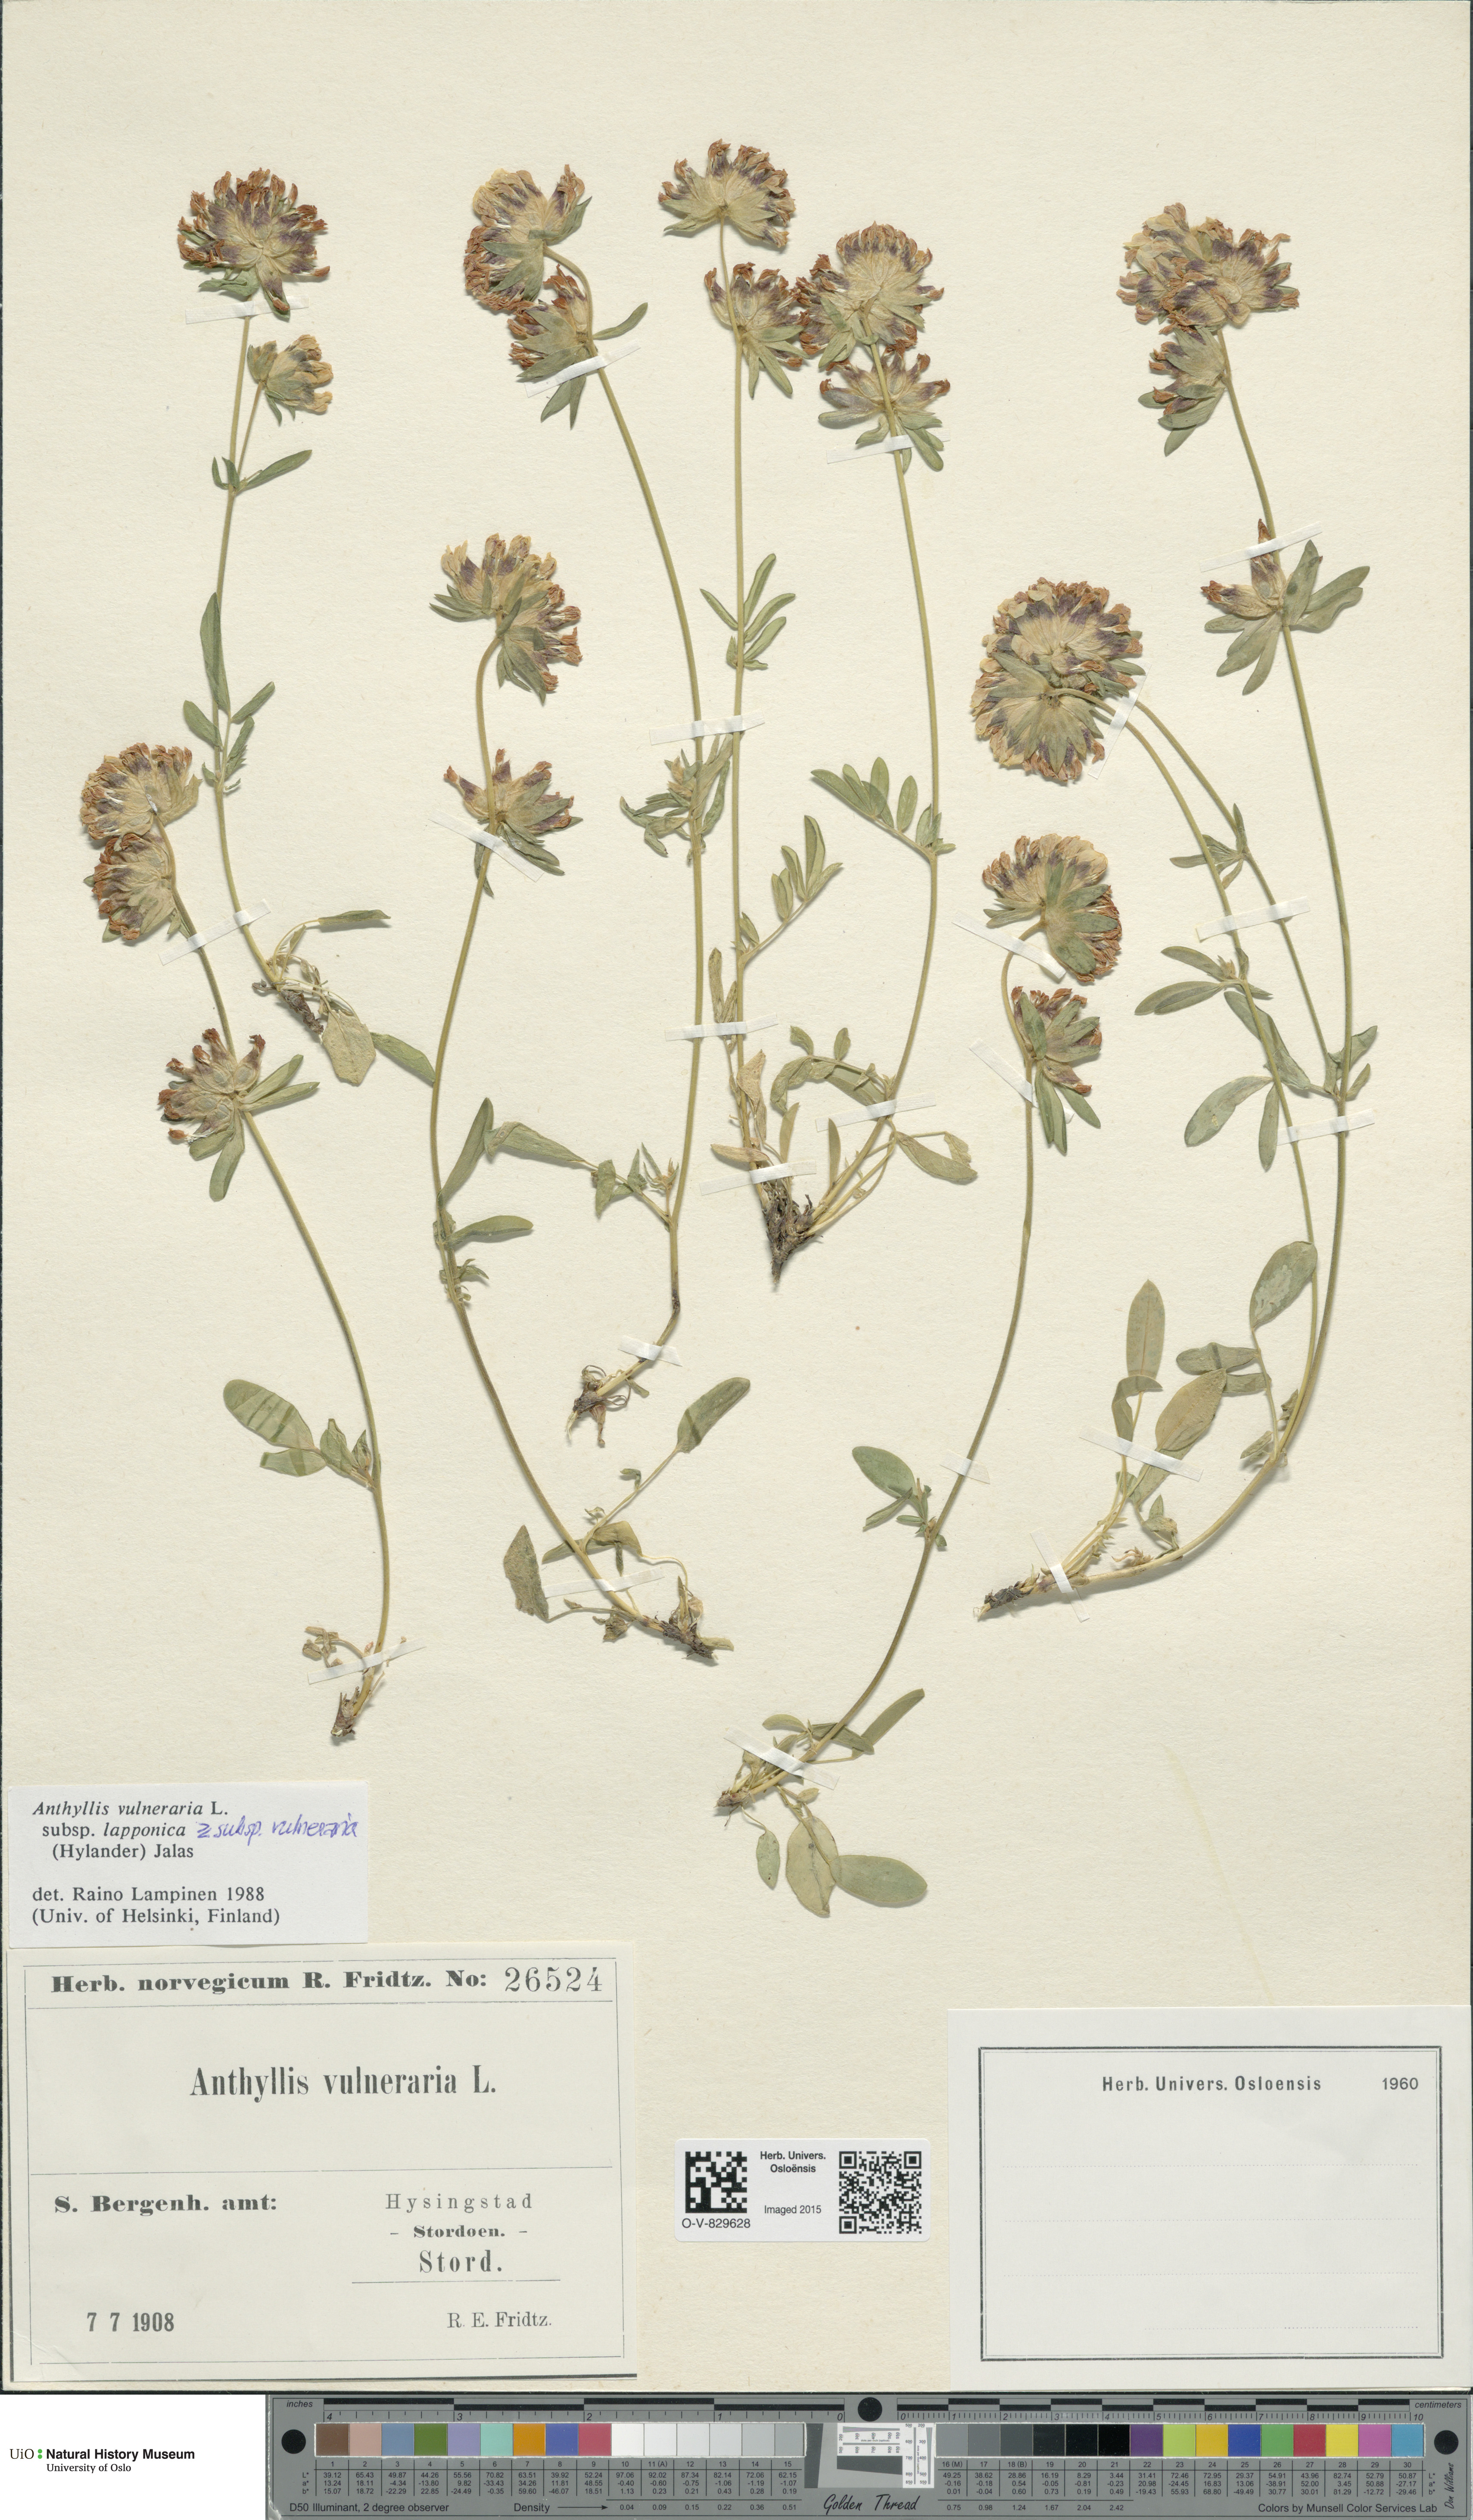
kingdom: Plantae
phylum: Tracheophyta
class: Magnoliopsida
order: Fabales
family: Fabaceae
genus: Anthyllis
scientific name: Anthyllis
